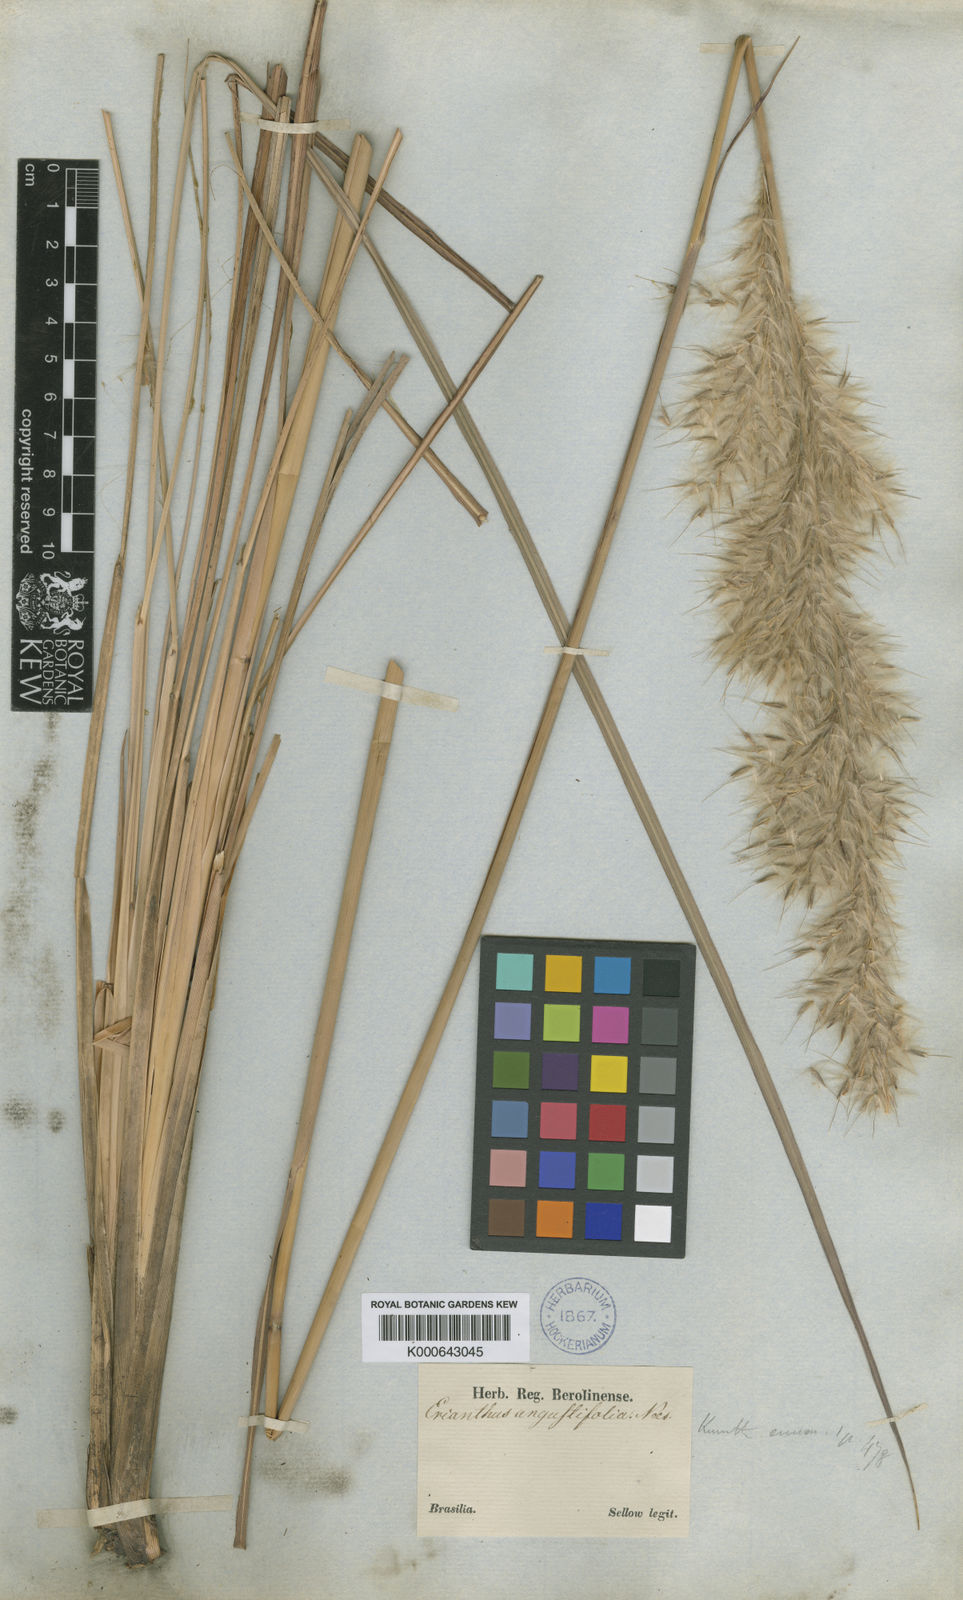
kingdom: Plantae
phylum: Tracheophyta
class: Liliopsida
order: Poales
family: Poaceae
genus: Saccharum
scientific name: Saccharum angustifolium
